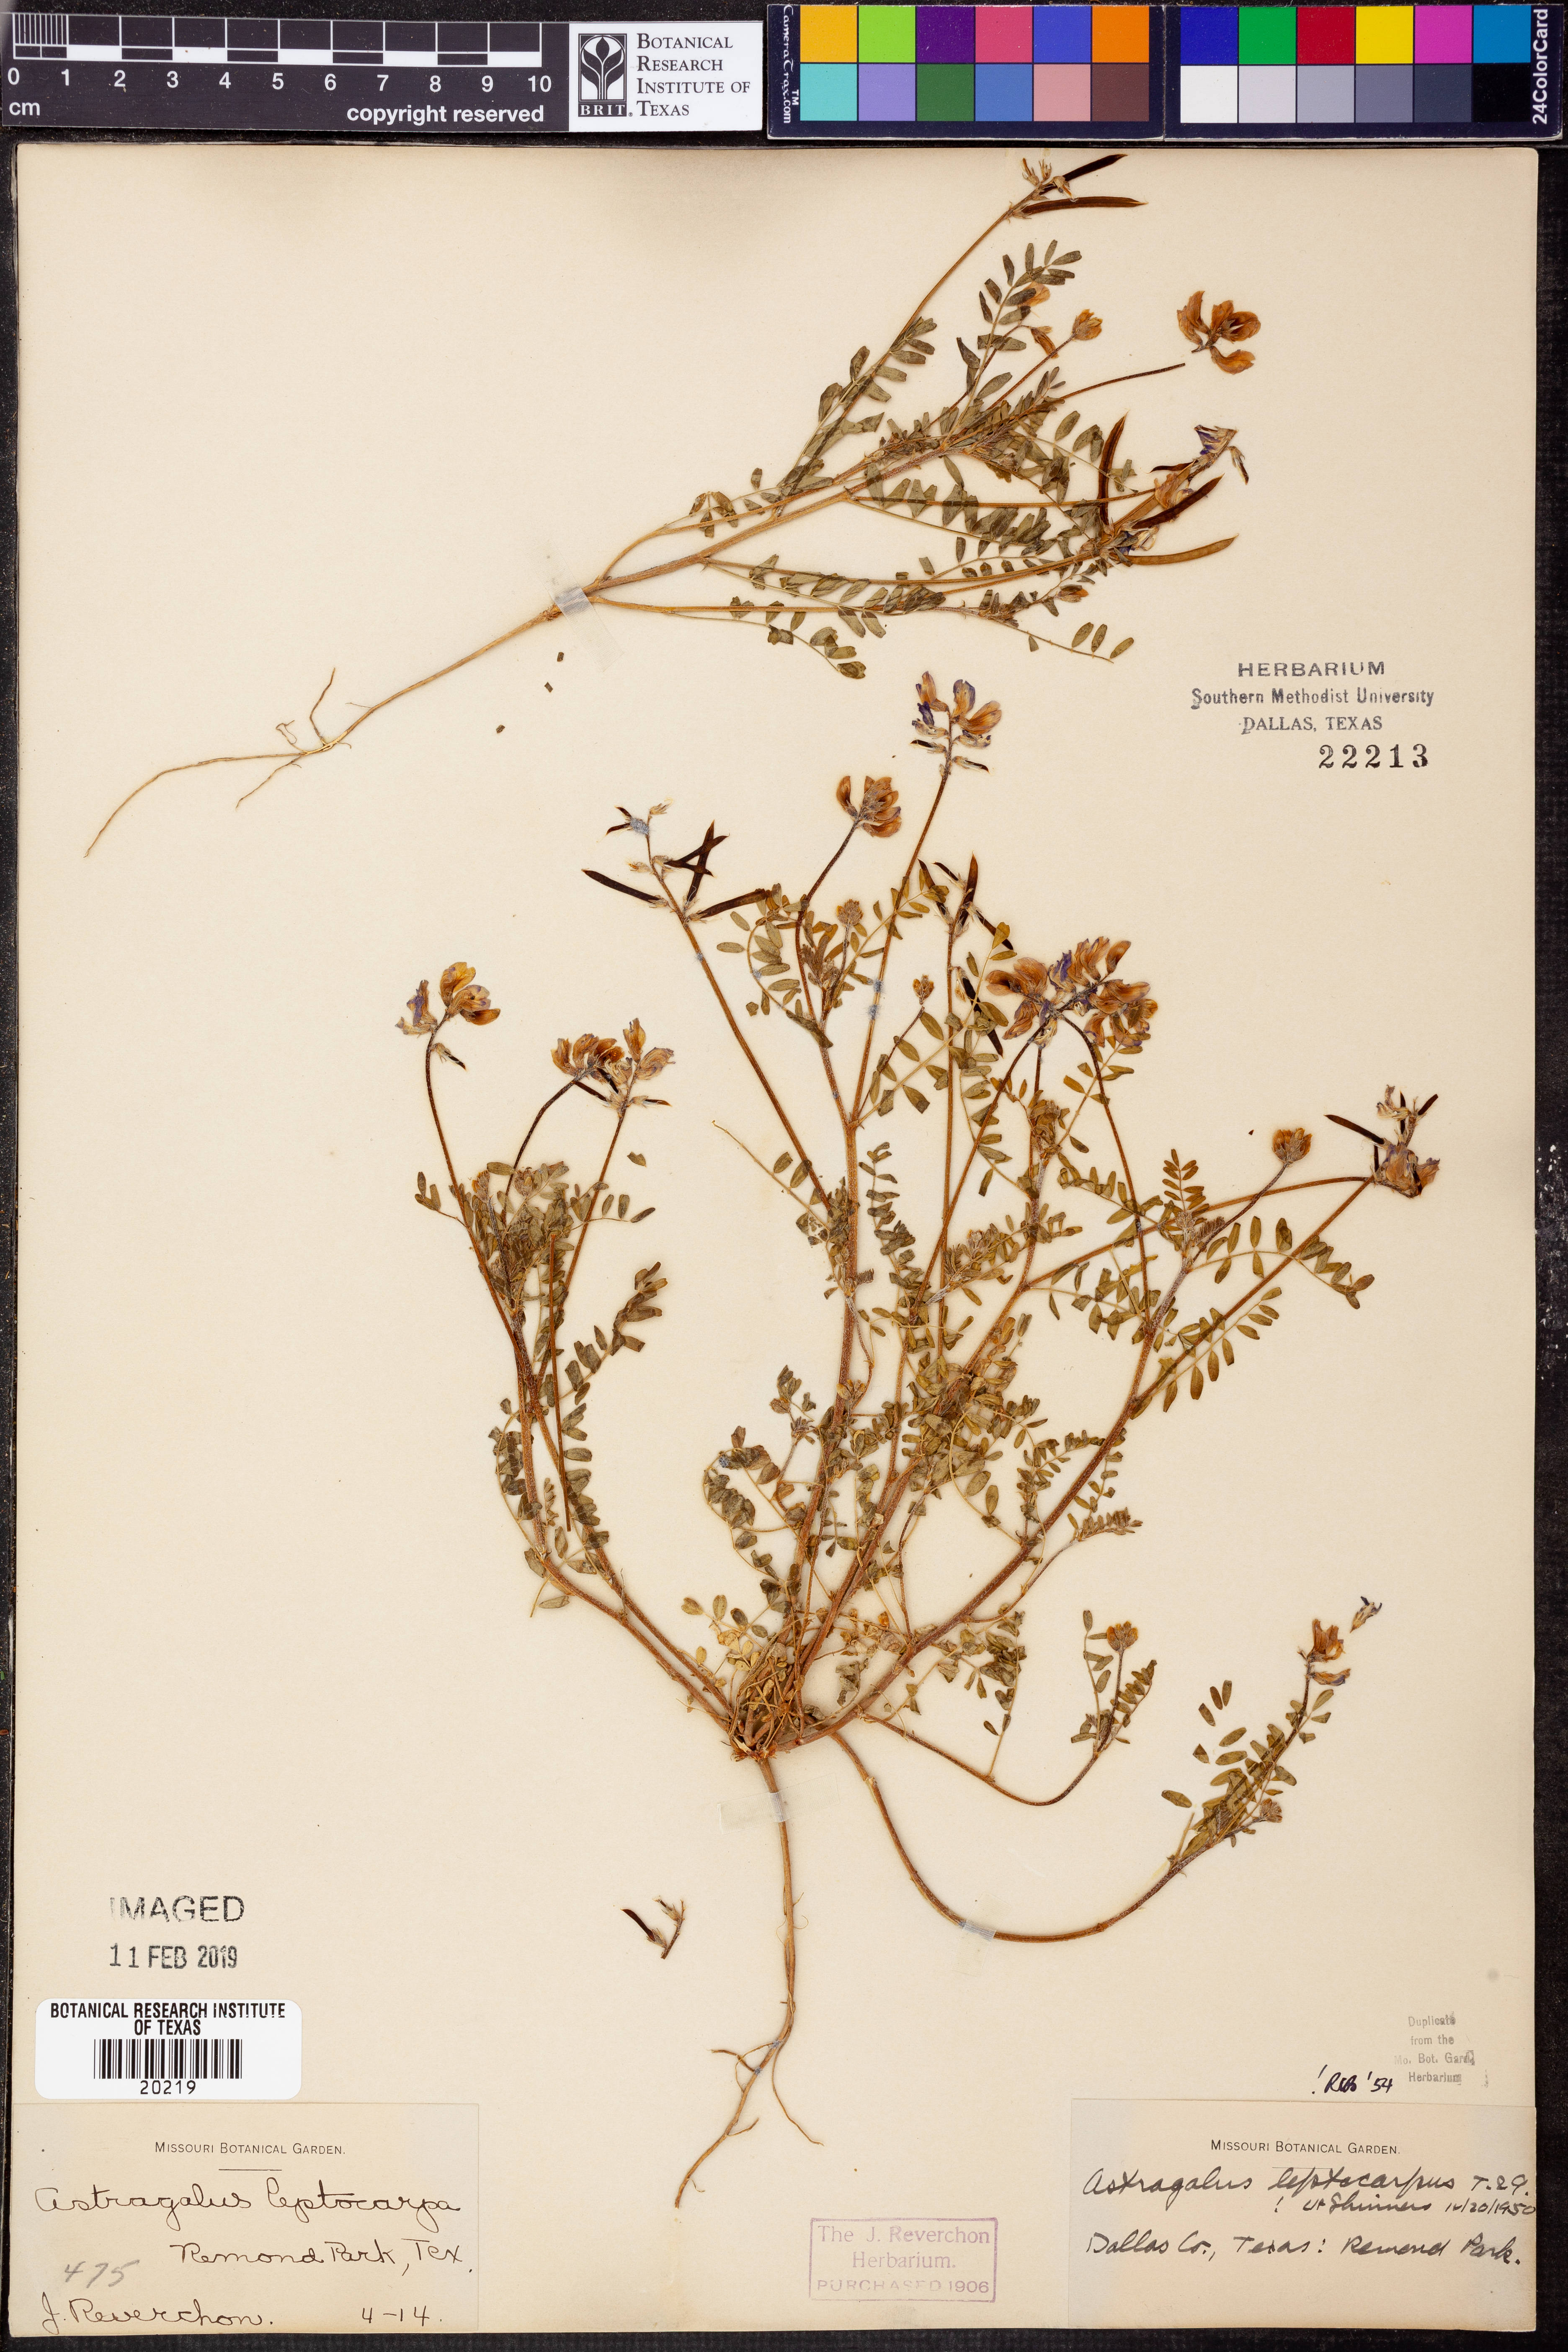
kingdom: Plantae
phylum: Tracheophyta
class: Magnoliopsida
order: Fabales
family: Fabaceae
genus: Astragalus
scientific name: Astragalus leptocarpus
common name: Bodkin milk-vetch
